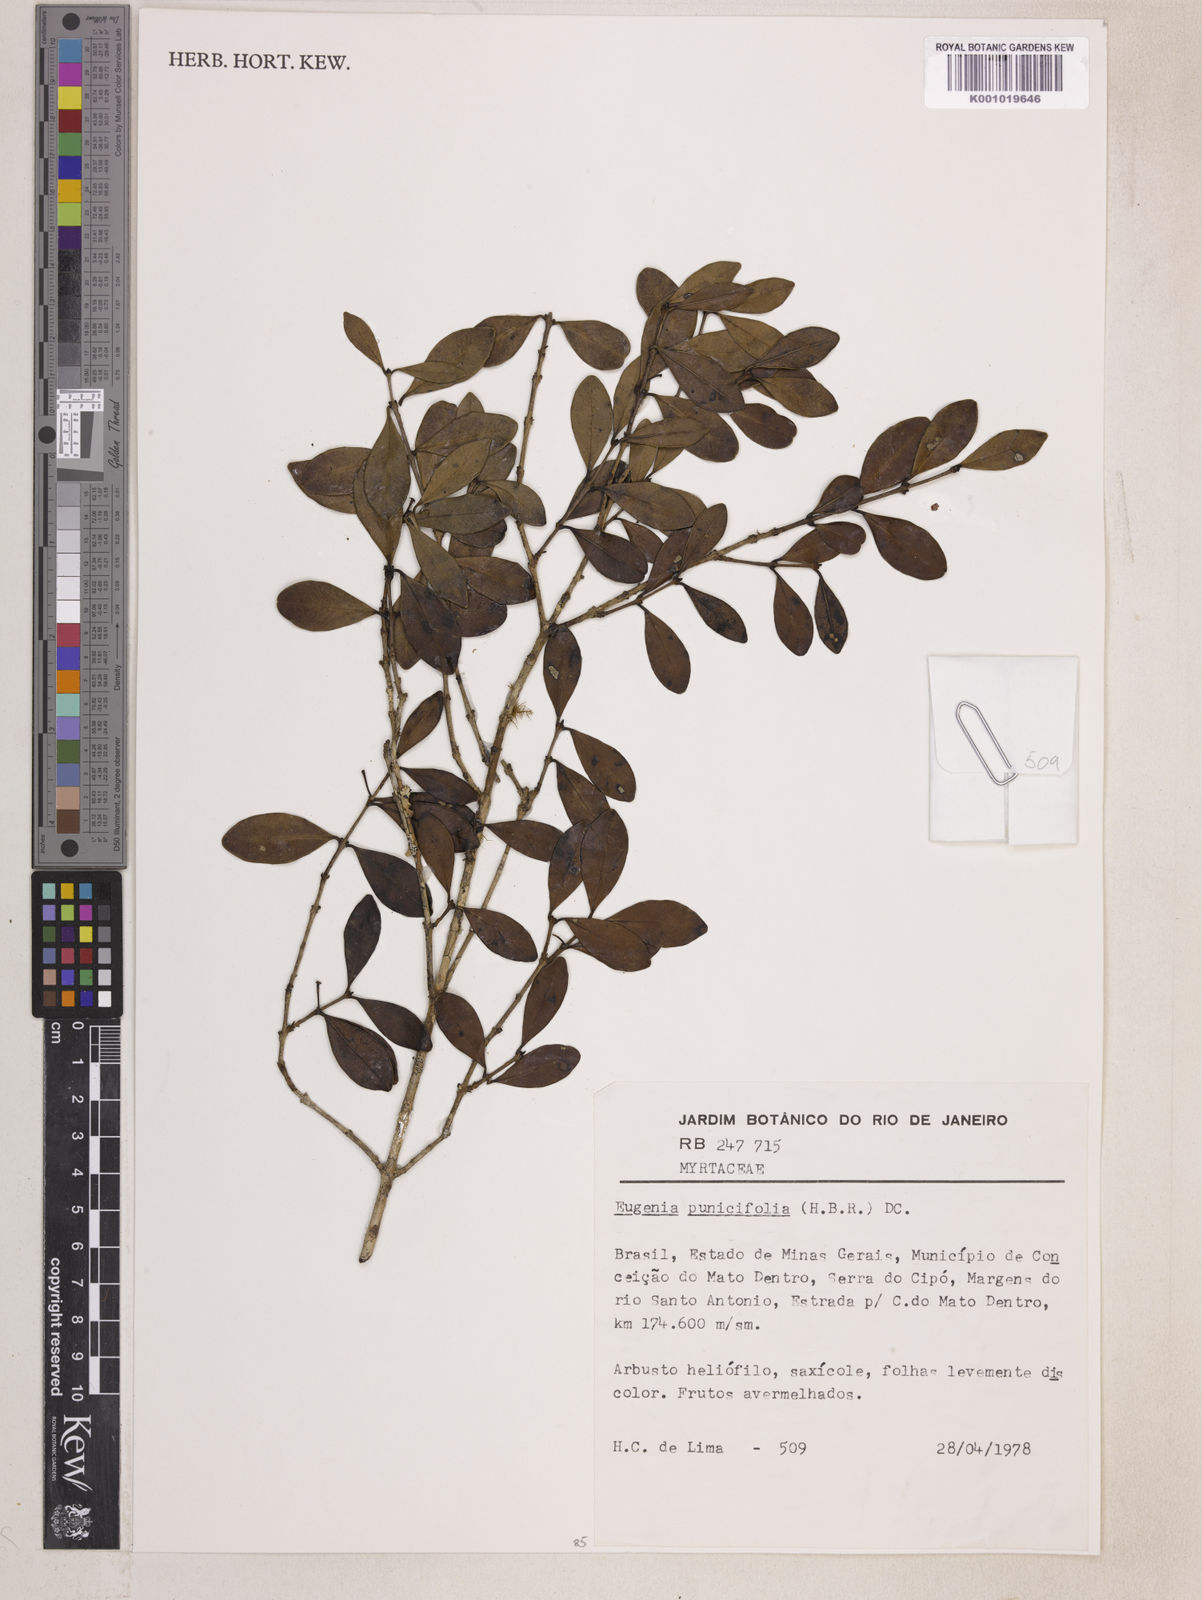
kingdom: Plantae
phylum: Tracheophyta
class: Magnoliopsida
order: Myrtales
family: Myrtaceae
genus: Eugenia
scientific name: Eugenia punicifolia
